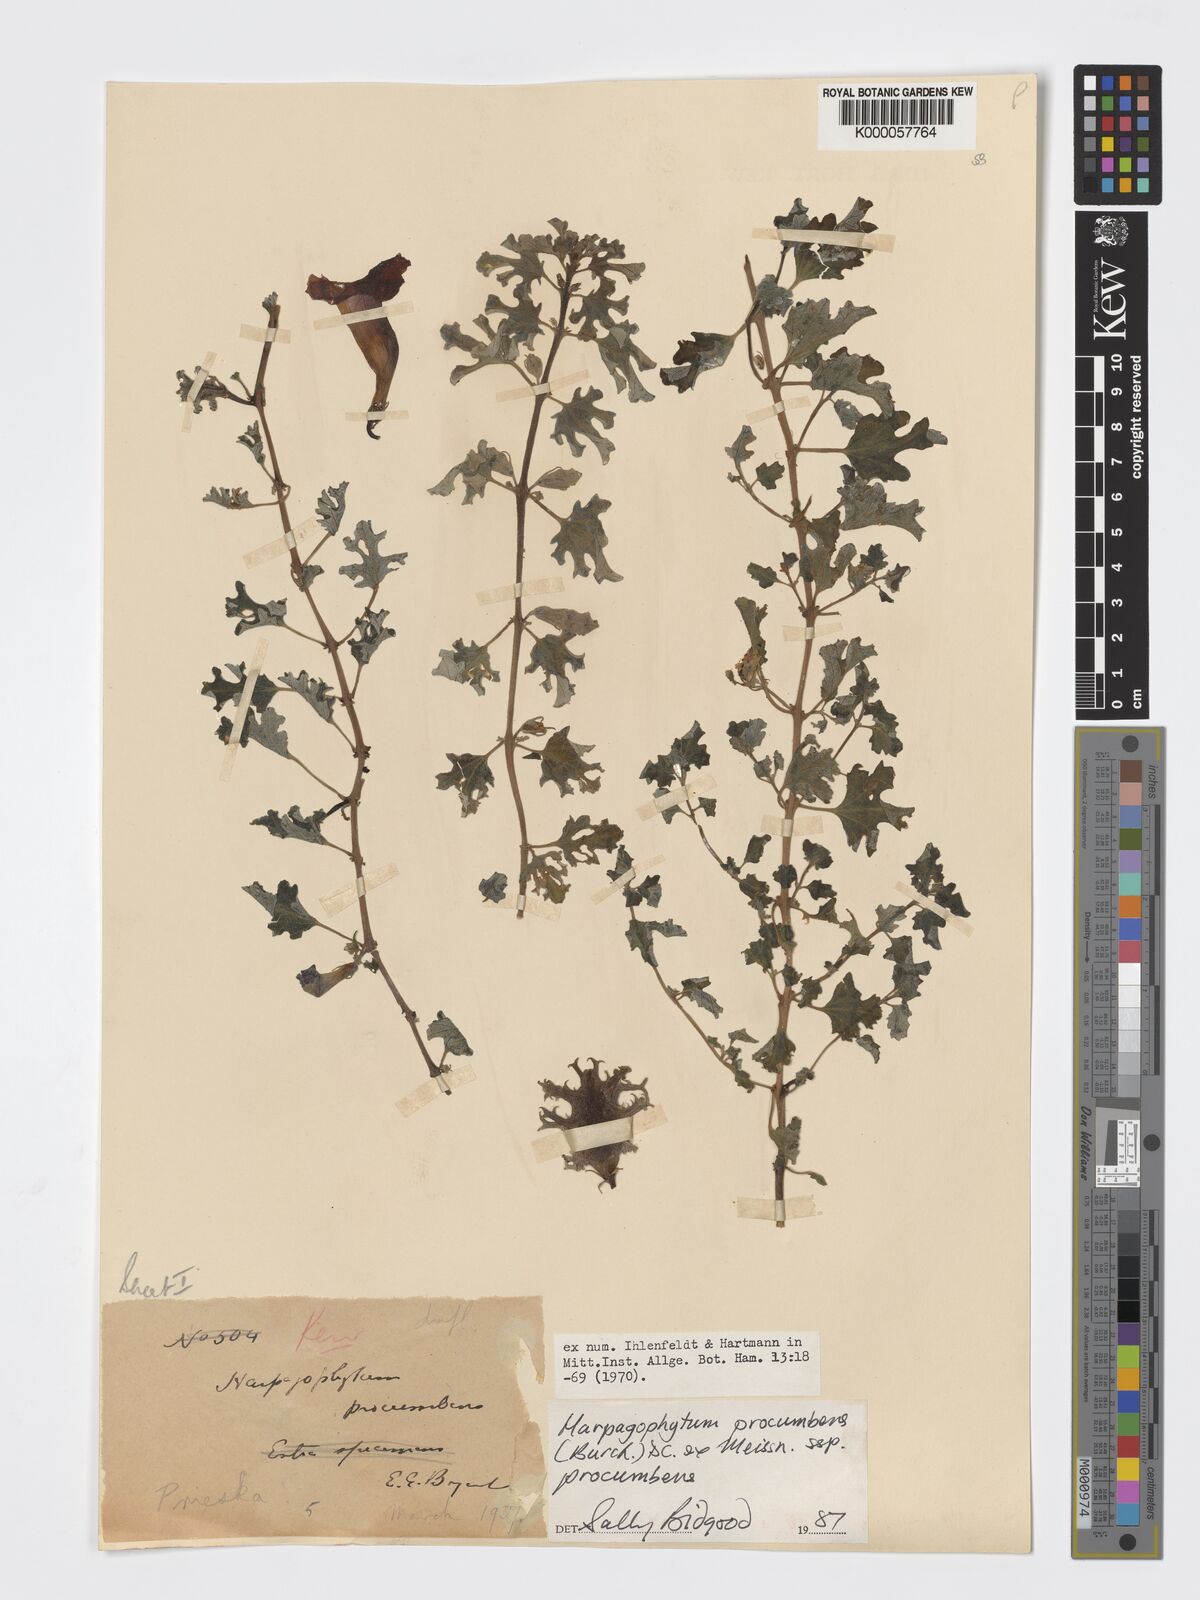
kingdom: Plantae
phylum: Tracheophyta
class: Magnoliopsida
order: Lamiales
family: Pedaliaceae
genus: Harpagophytum
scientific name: Harpagophytum procumbens
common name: Grappleplant
